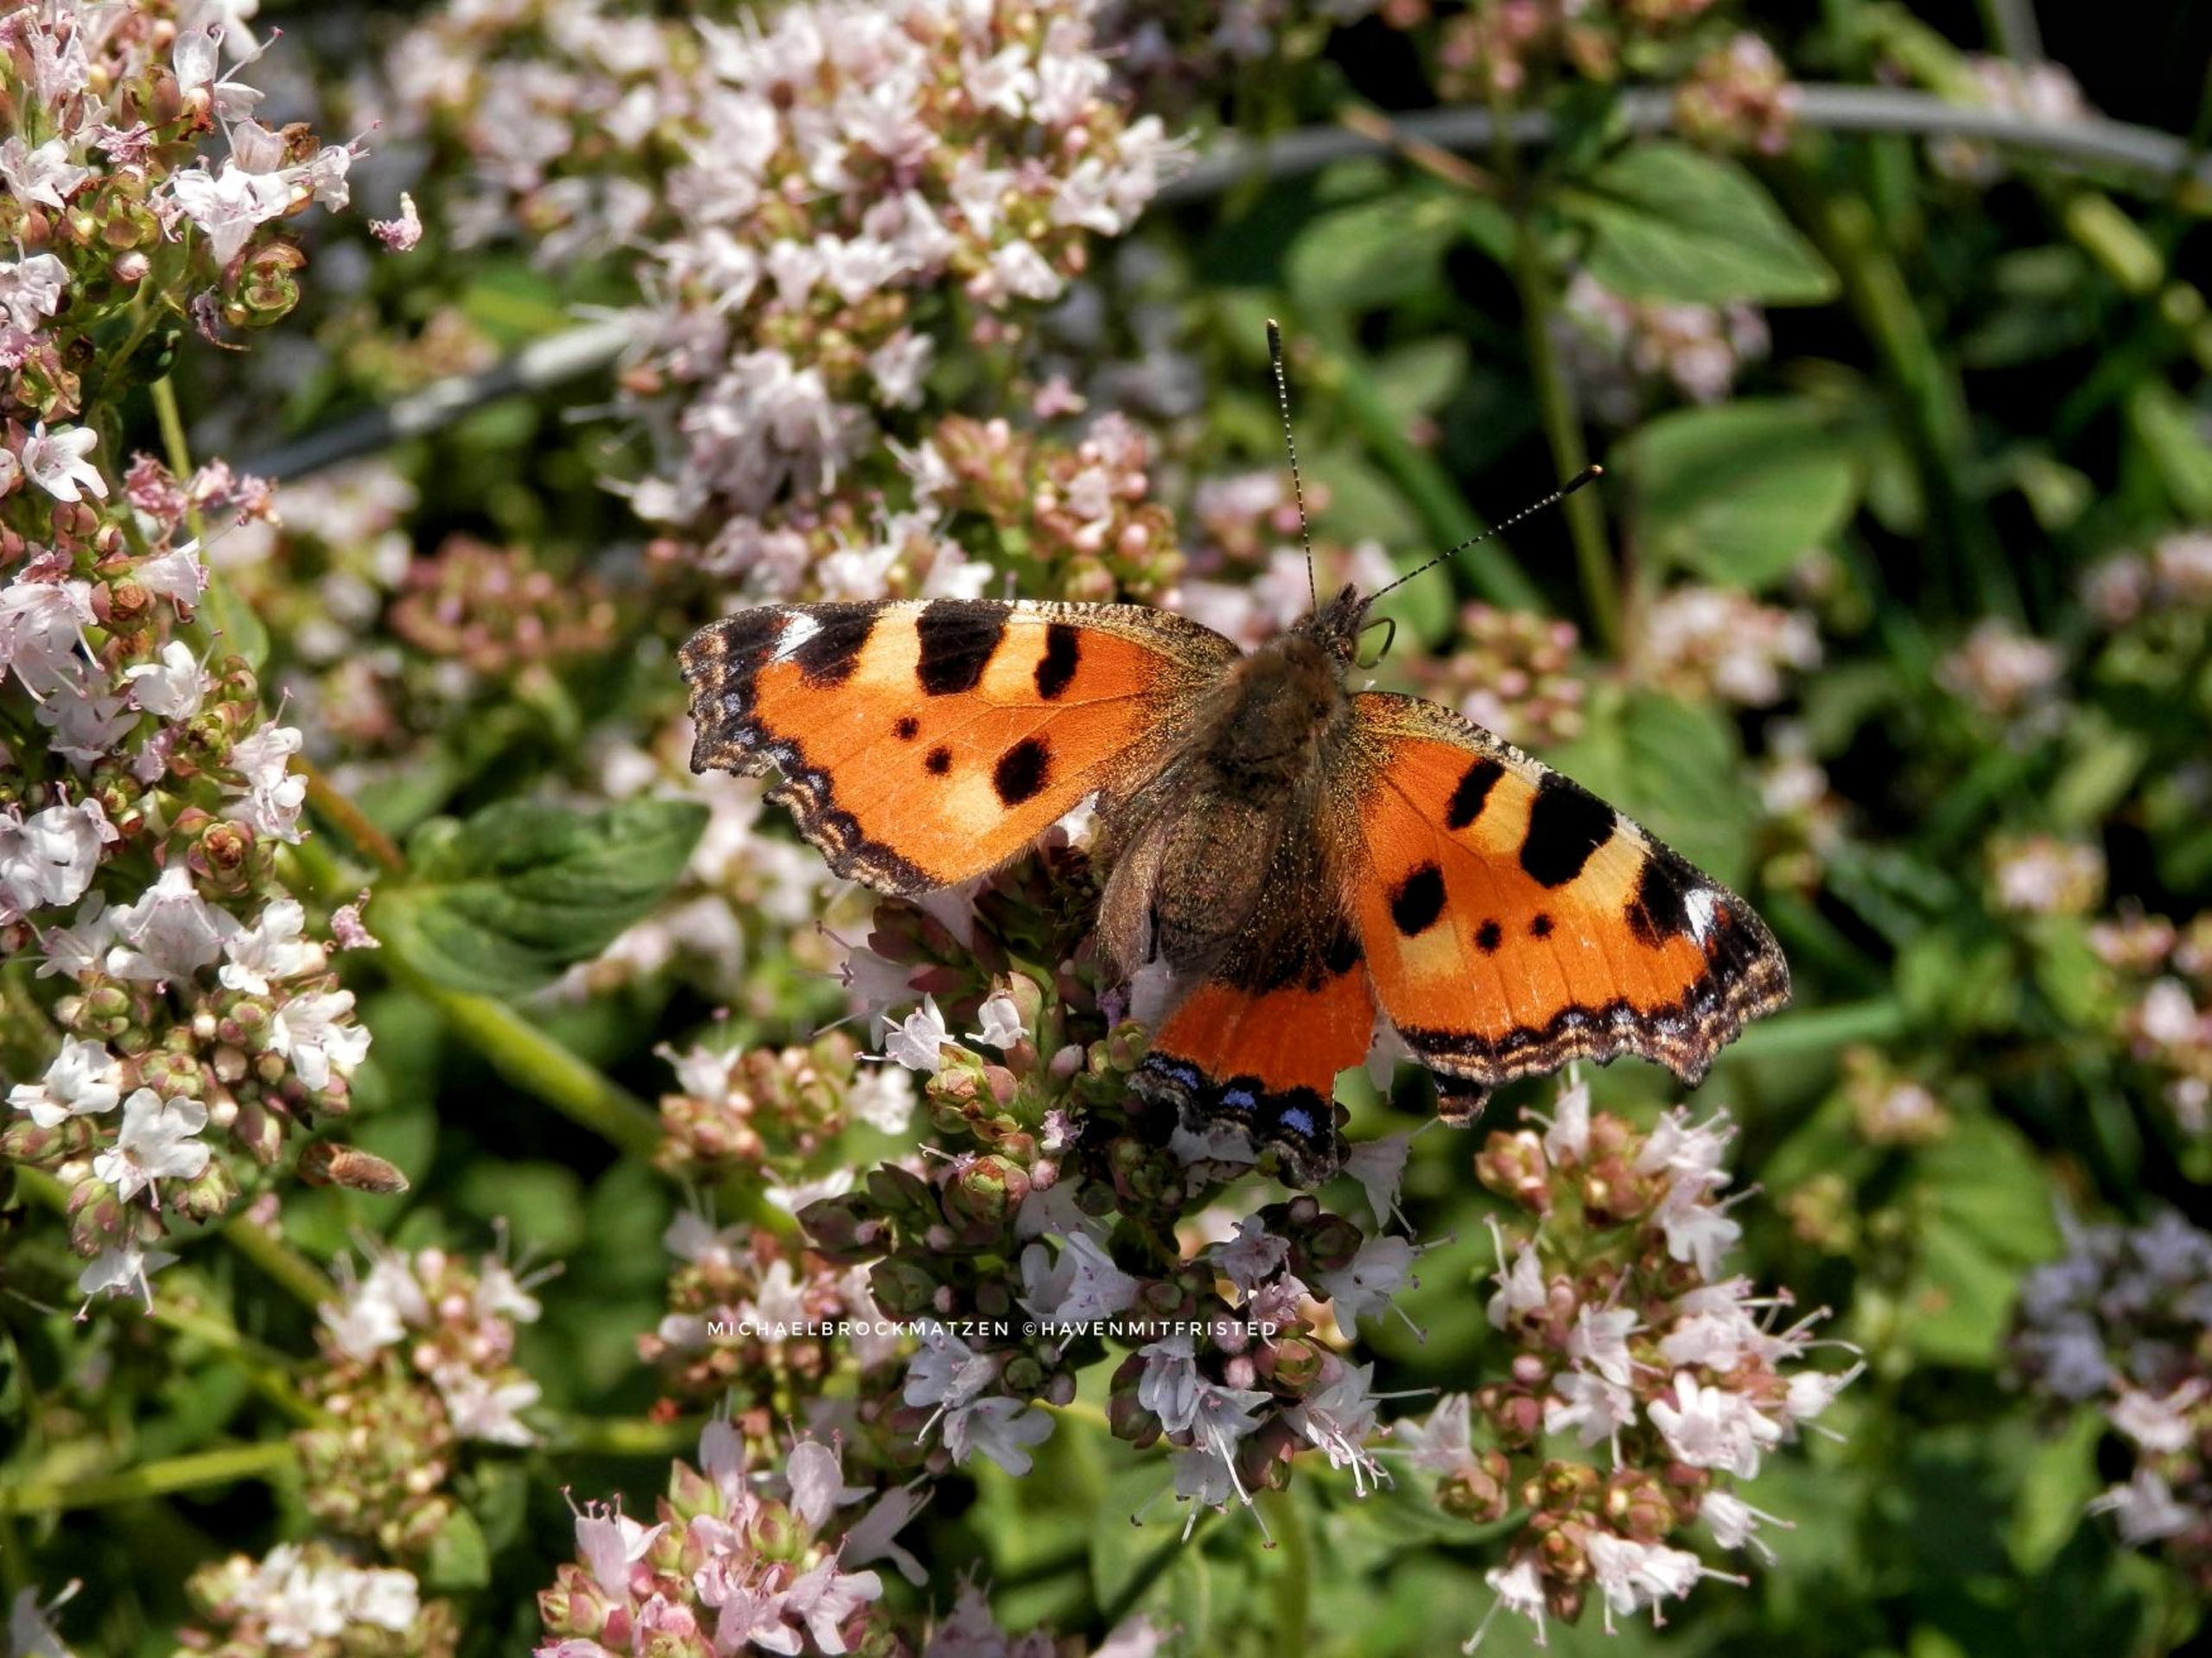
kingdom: Animalia
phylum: Arthropoda
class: Insecta
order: Lepidoptera
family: Nymphalidae
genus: Aglais
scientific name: Aglais urticae
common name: Nældens takvinge
